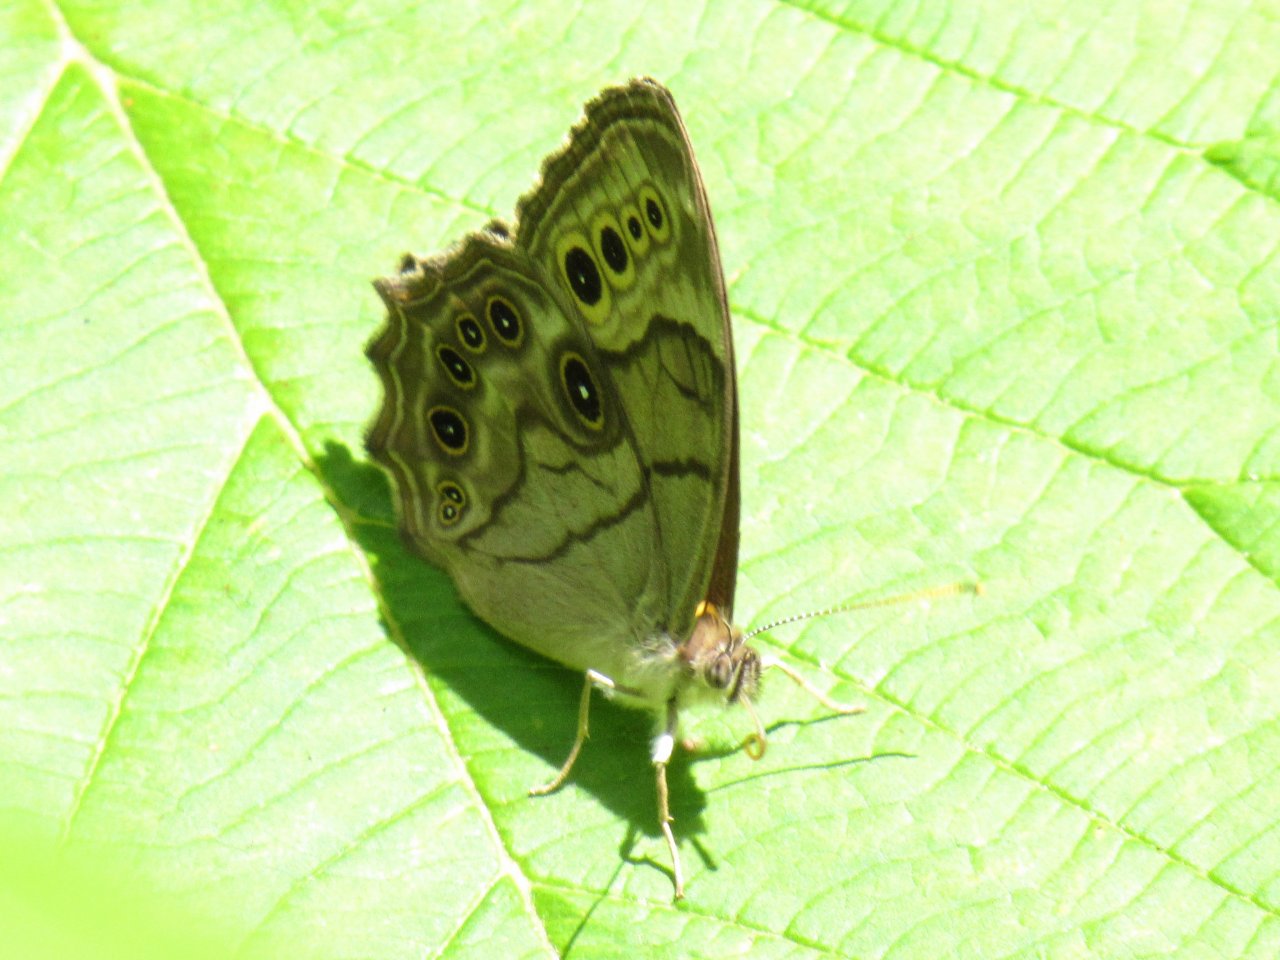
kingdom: Animalia
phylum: Arthropoda
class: Insecta
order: Lepidoptera
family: Nymphalidae
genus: Lethe
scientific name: Lethe anthedon
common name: Northern Pearly-Eye
